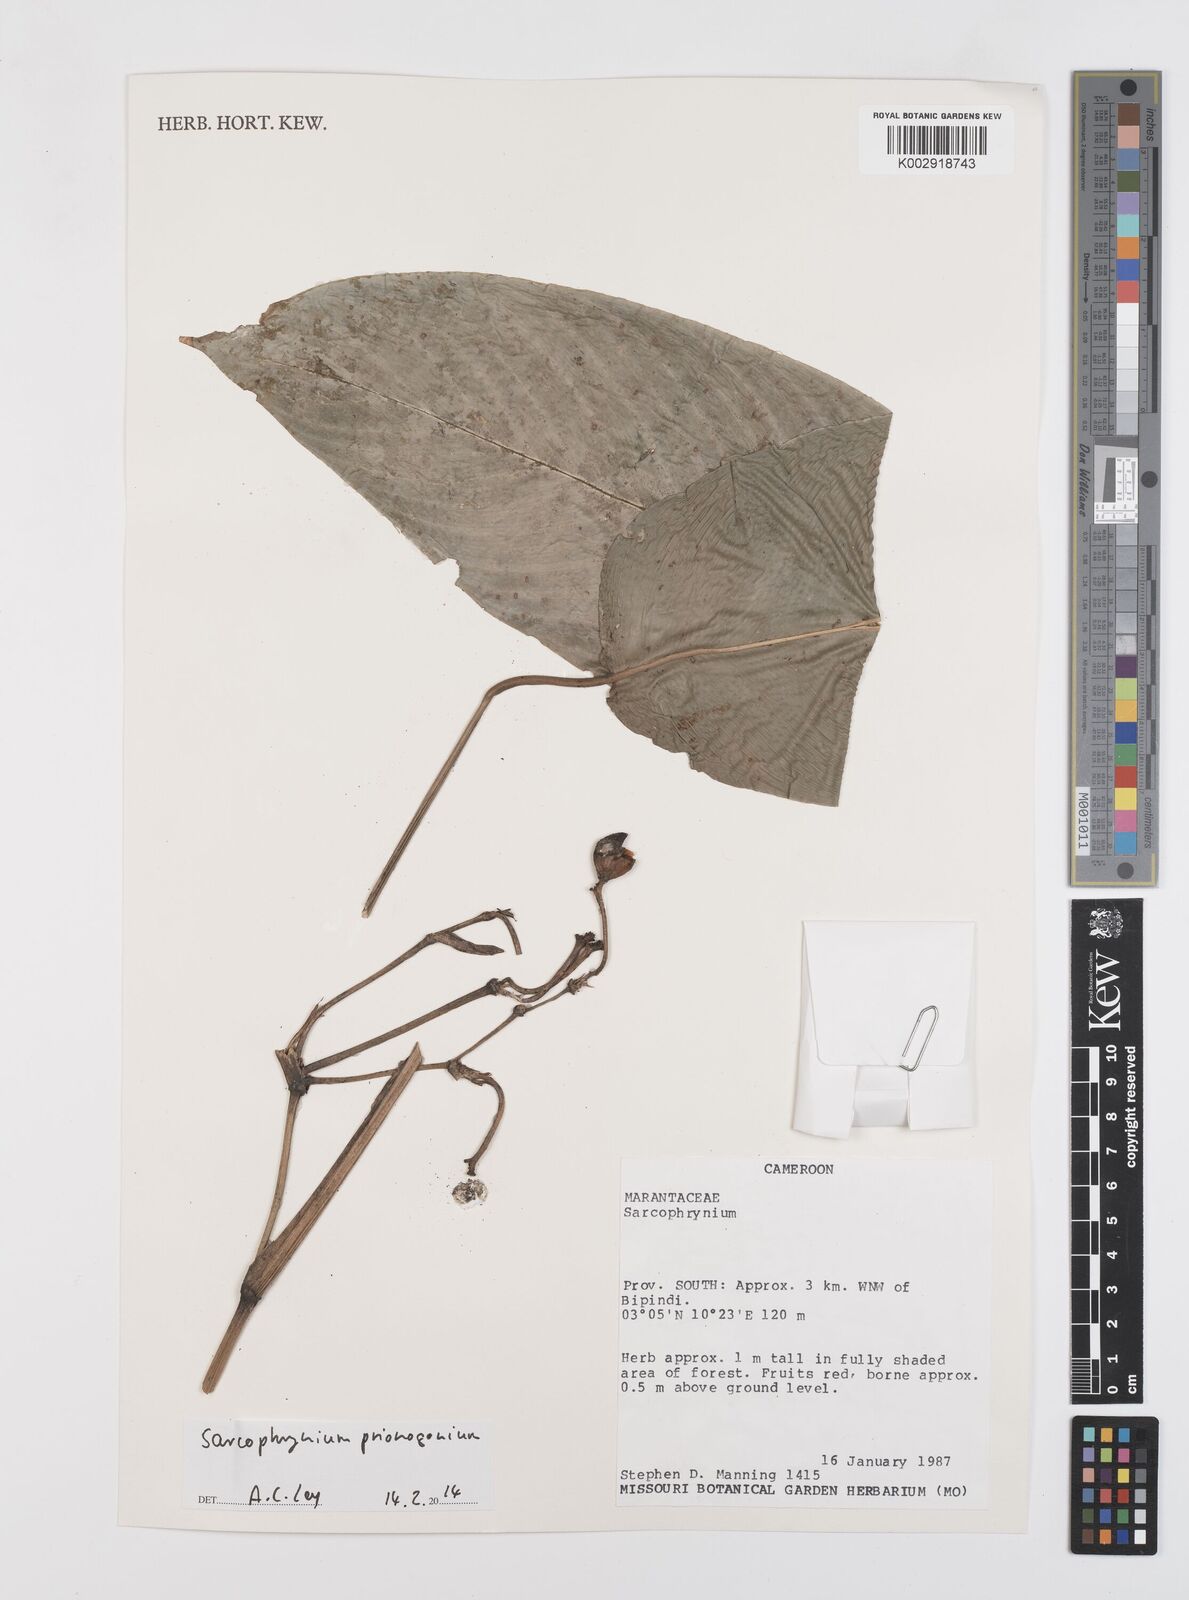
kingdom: Plantae
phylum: Tracheophyta
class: Liliopsida
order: Zingiberales
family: Marantaceae
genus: Sarcophrynium
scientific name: Sarcophrynium prionogonium
